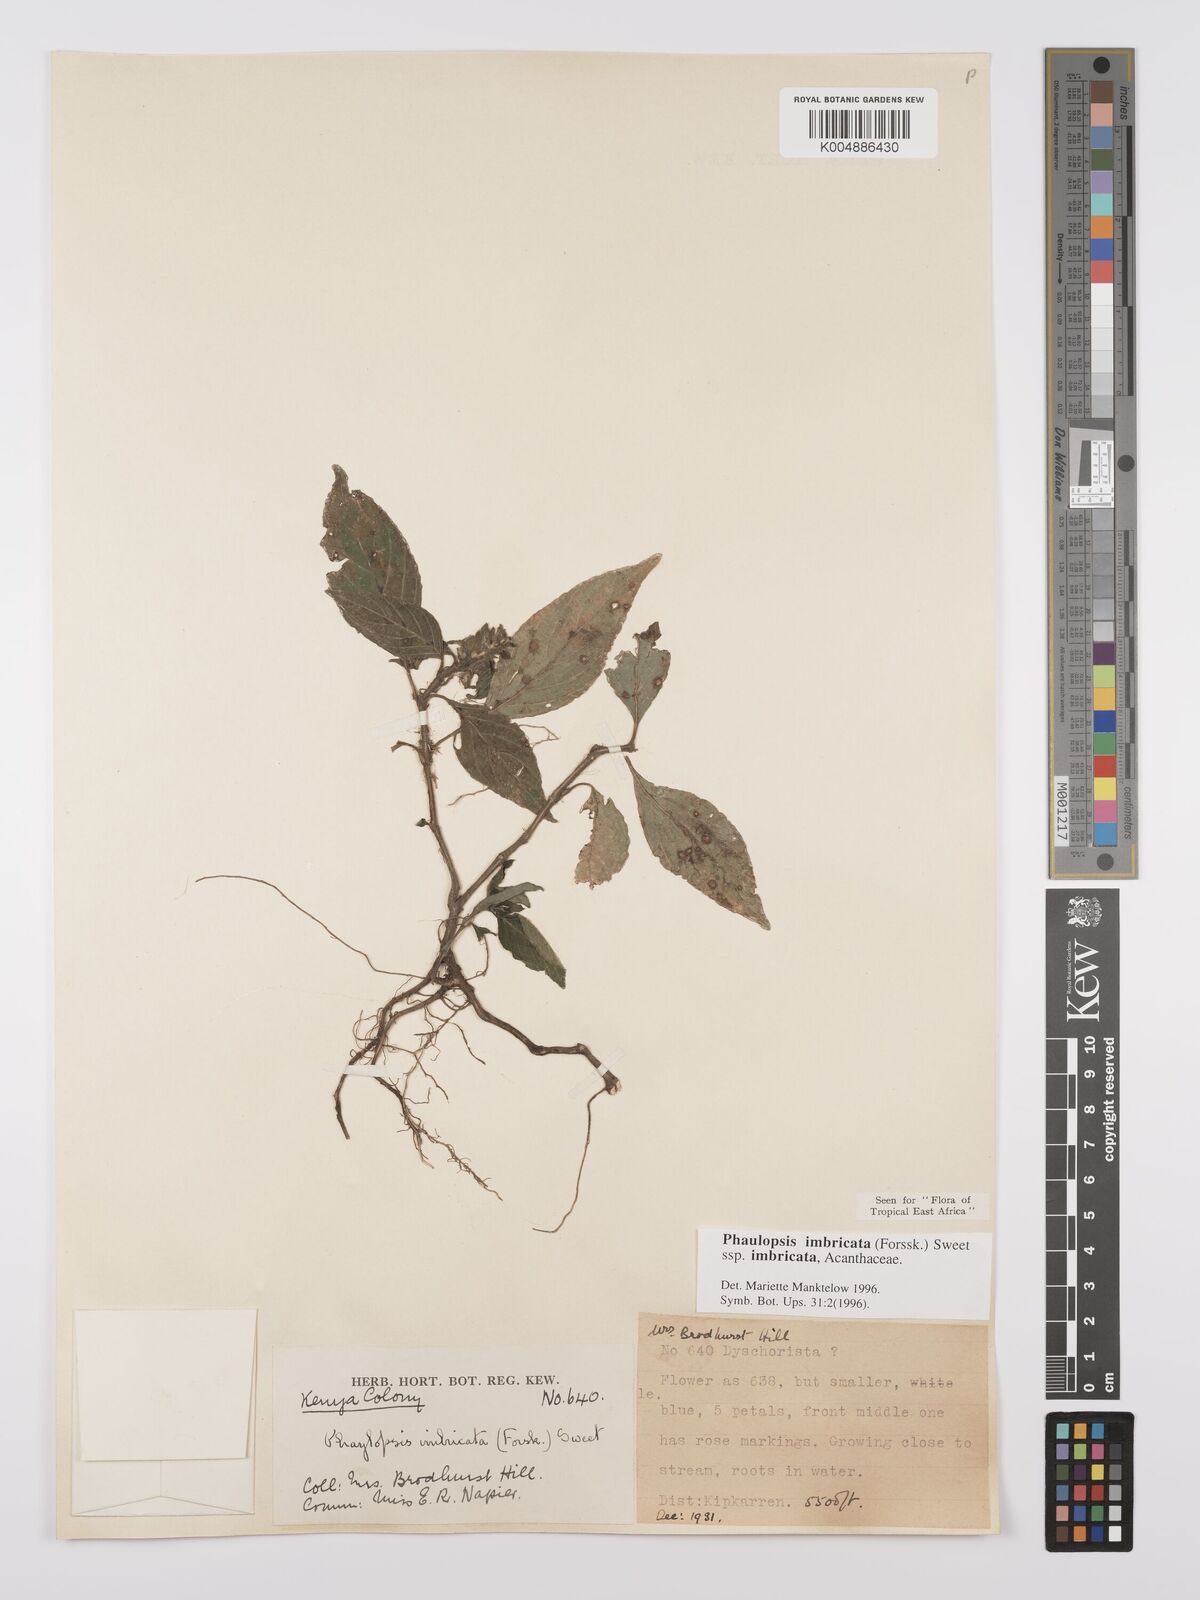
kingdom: Plantae
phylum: Tracheophyta
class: Magnoliopsida
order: Lamiales
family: Acanthaceae
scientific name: Acanthaceae
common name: Acanthaceae
